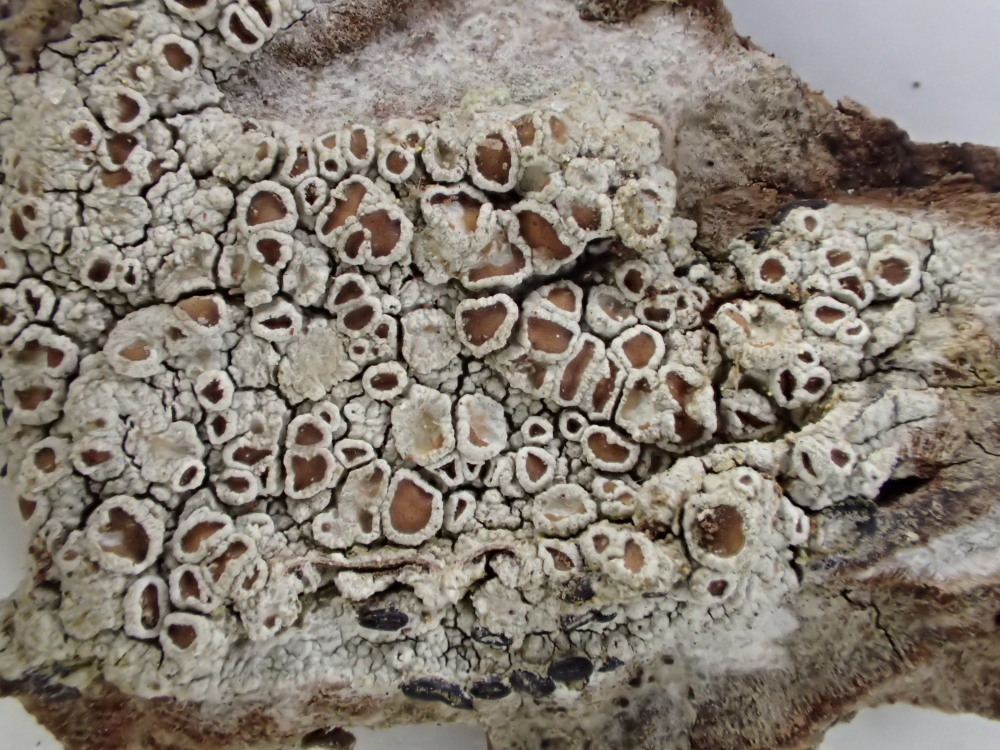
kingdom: Fungi
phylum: Ascomycota
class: Lecanoromycetes
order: Lecanorales
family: Lecanoraceae
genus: Lecanora
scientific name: Lecanora argentata
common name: sølv-kantskivelav
